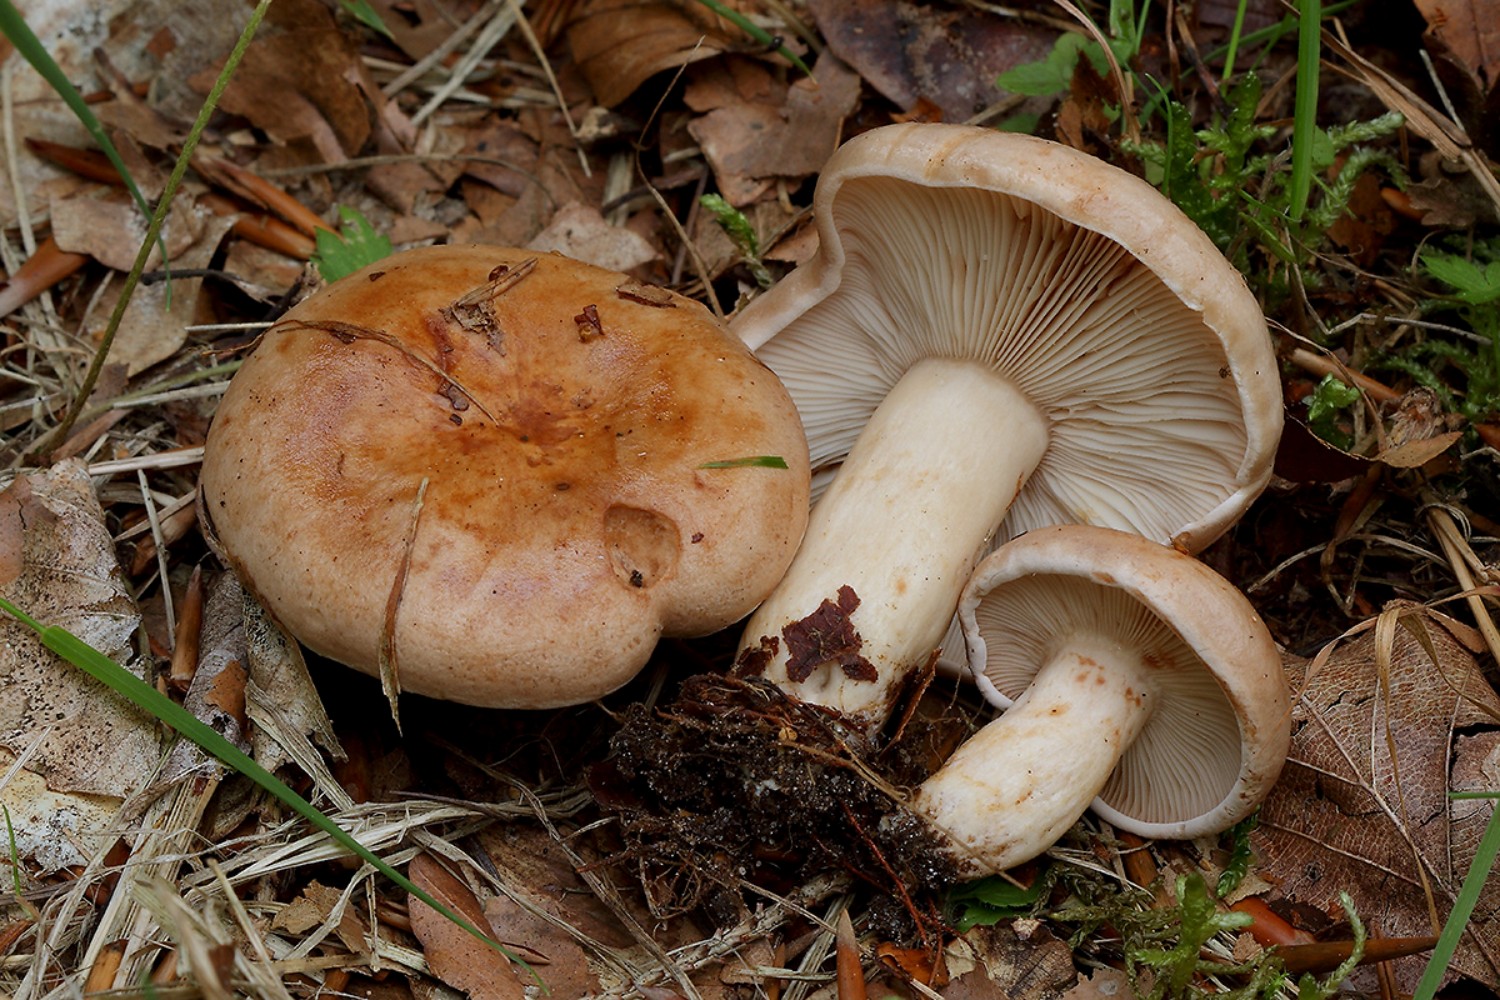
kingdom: Fungi
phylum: Basidiomycota
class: Agaricomycetes
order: Russulales
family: Russulaceae
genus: Lactarius
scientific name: Lactarius pallidus
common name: bleg mælkehat
